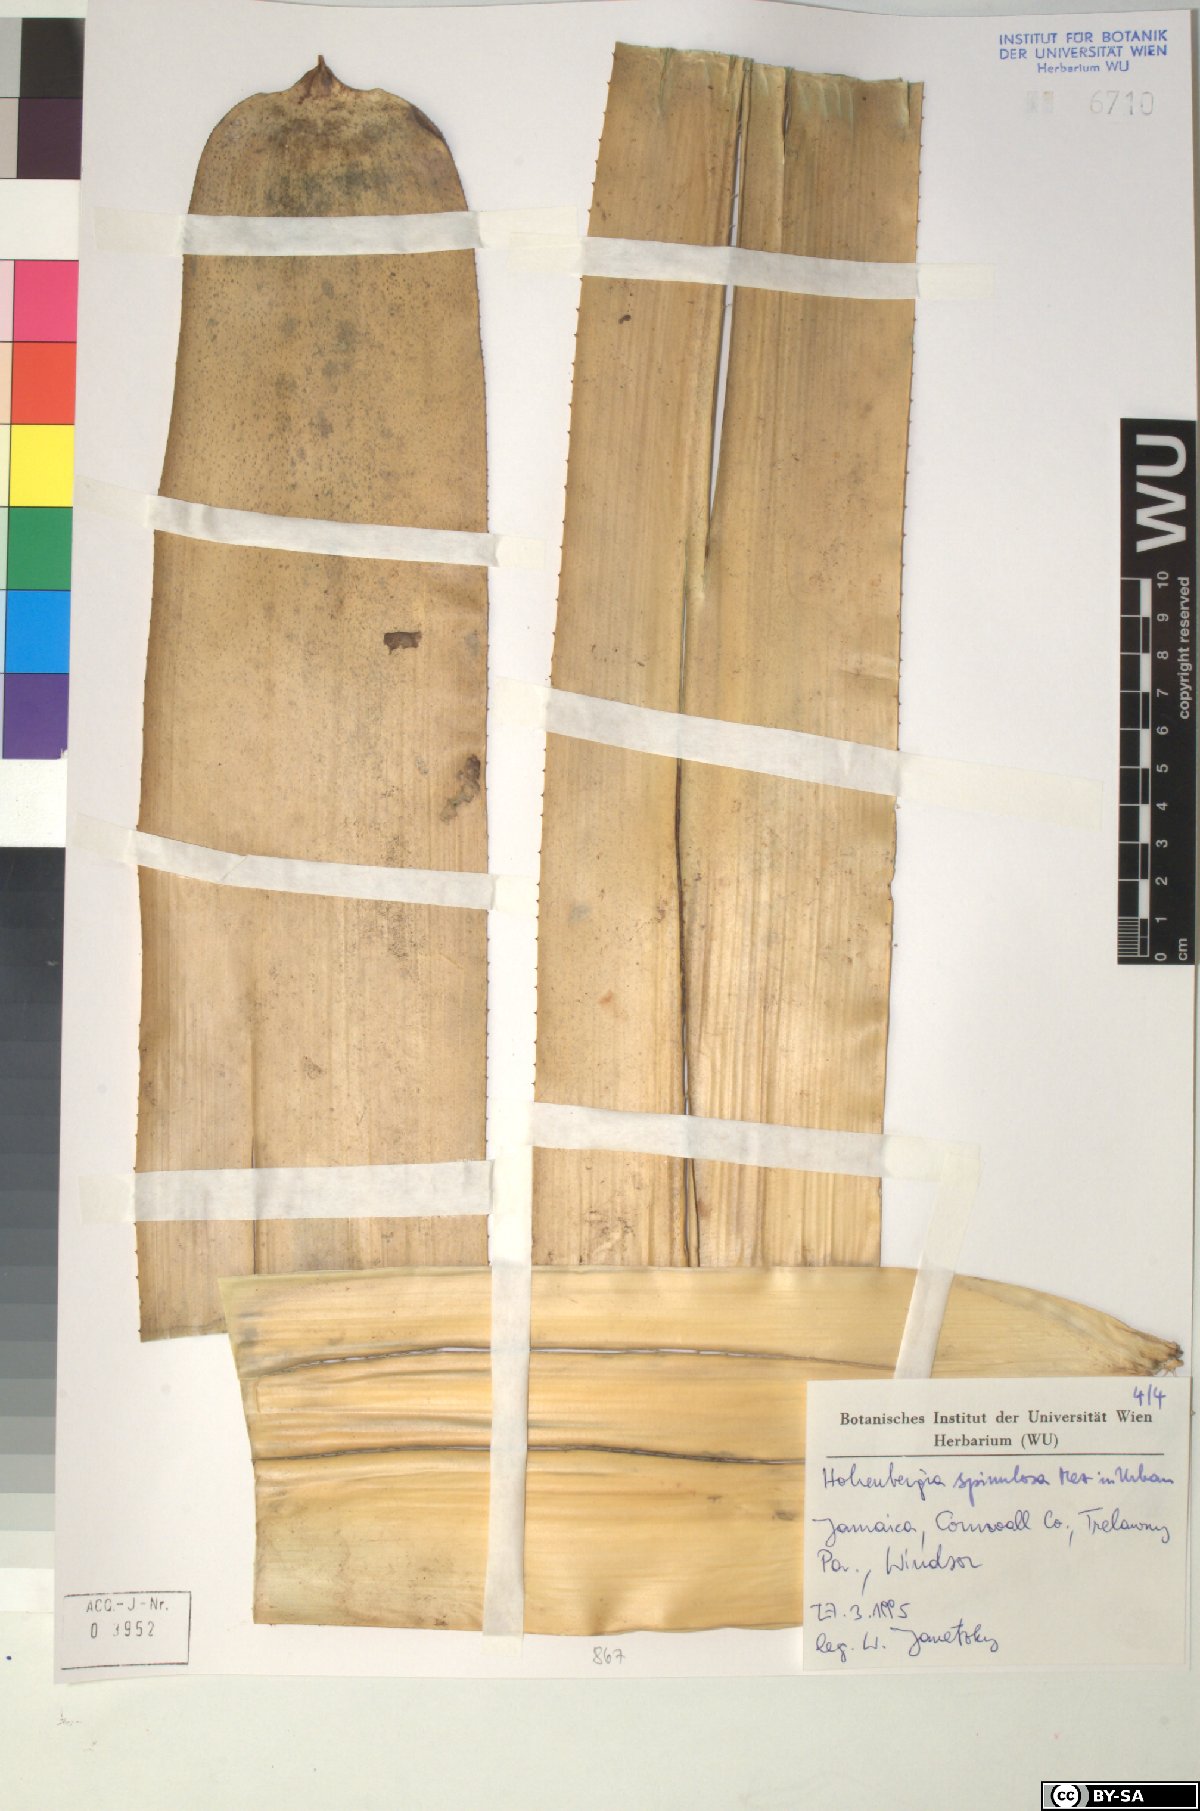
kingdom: Plantae
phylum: Tracheophyta
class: Liliopsida
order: Poales
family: Bromeliaceae
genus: Wittmackia
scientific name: Wittmackia spinulosa
